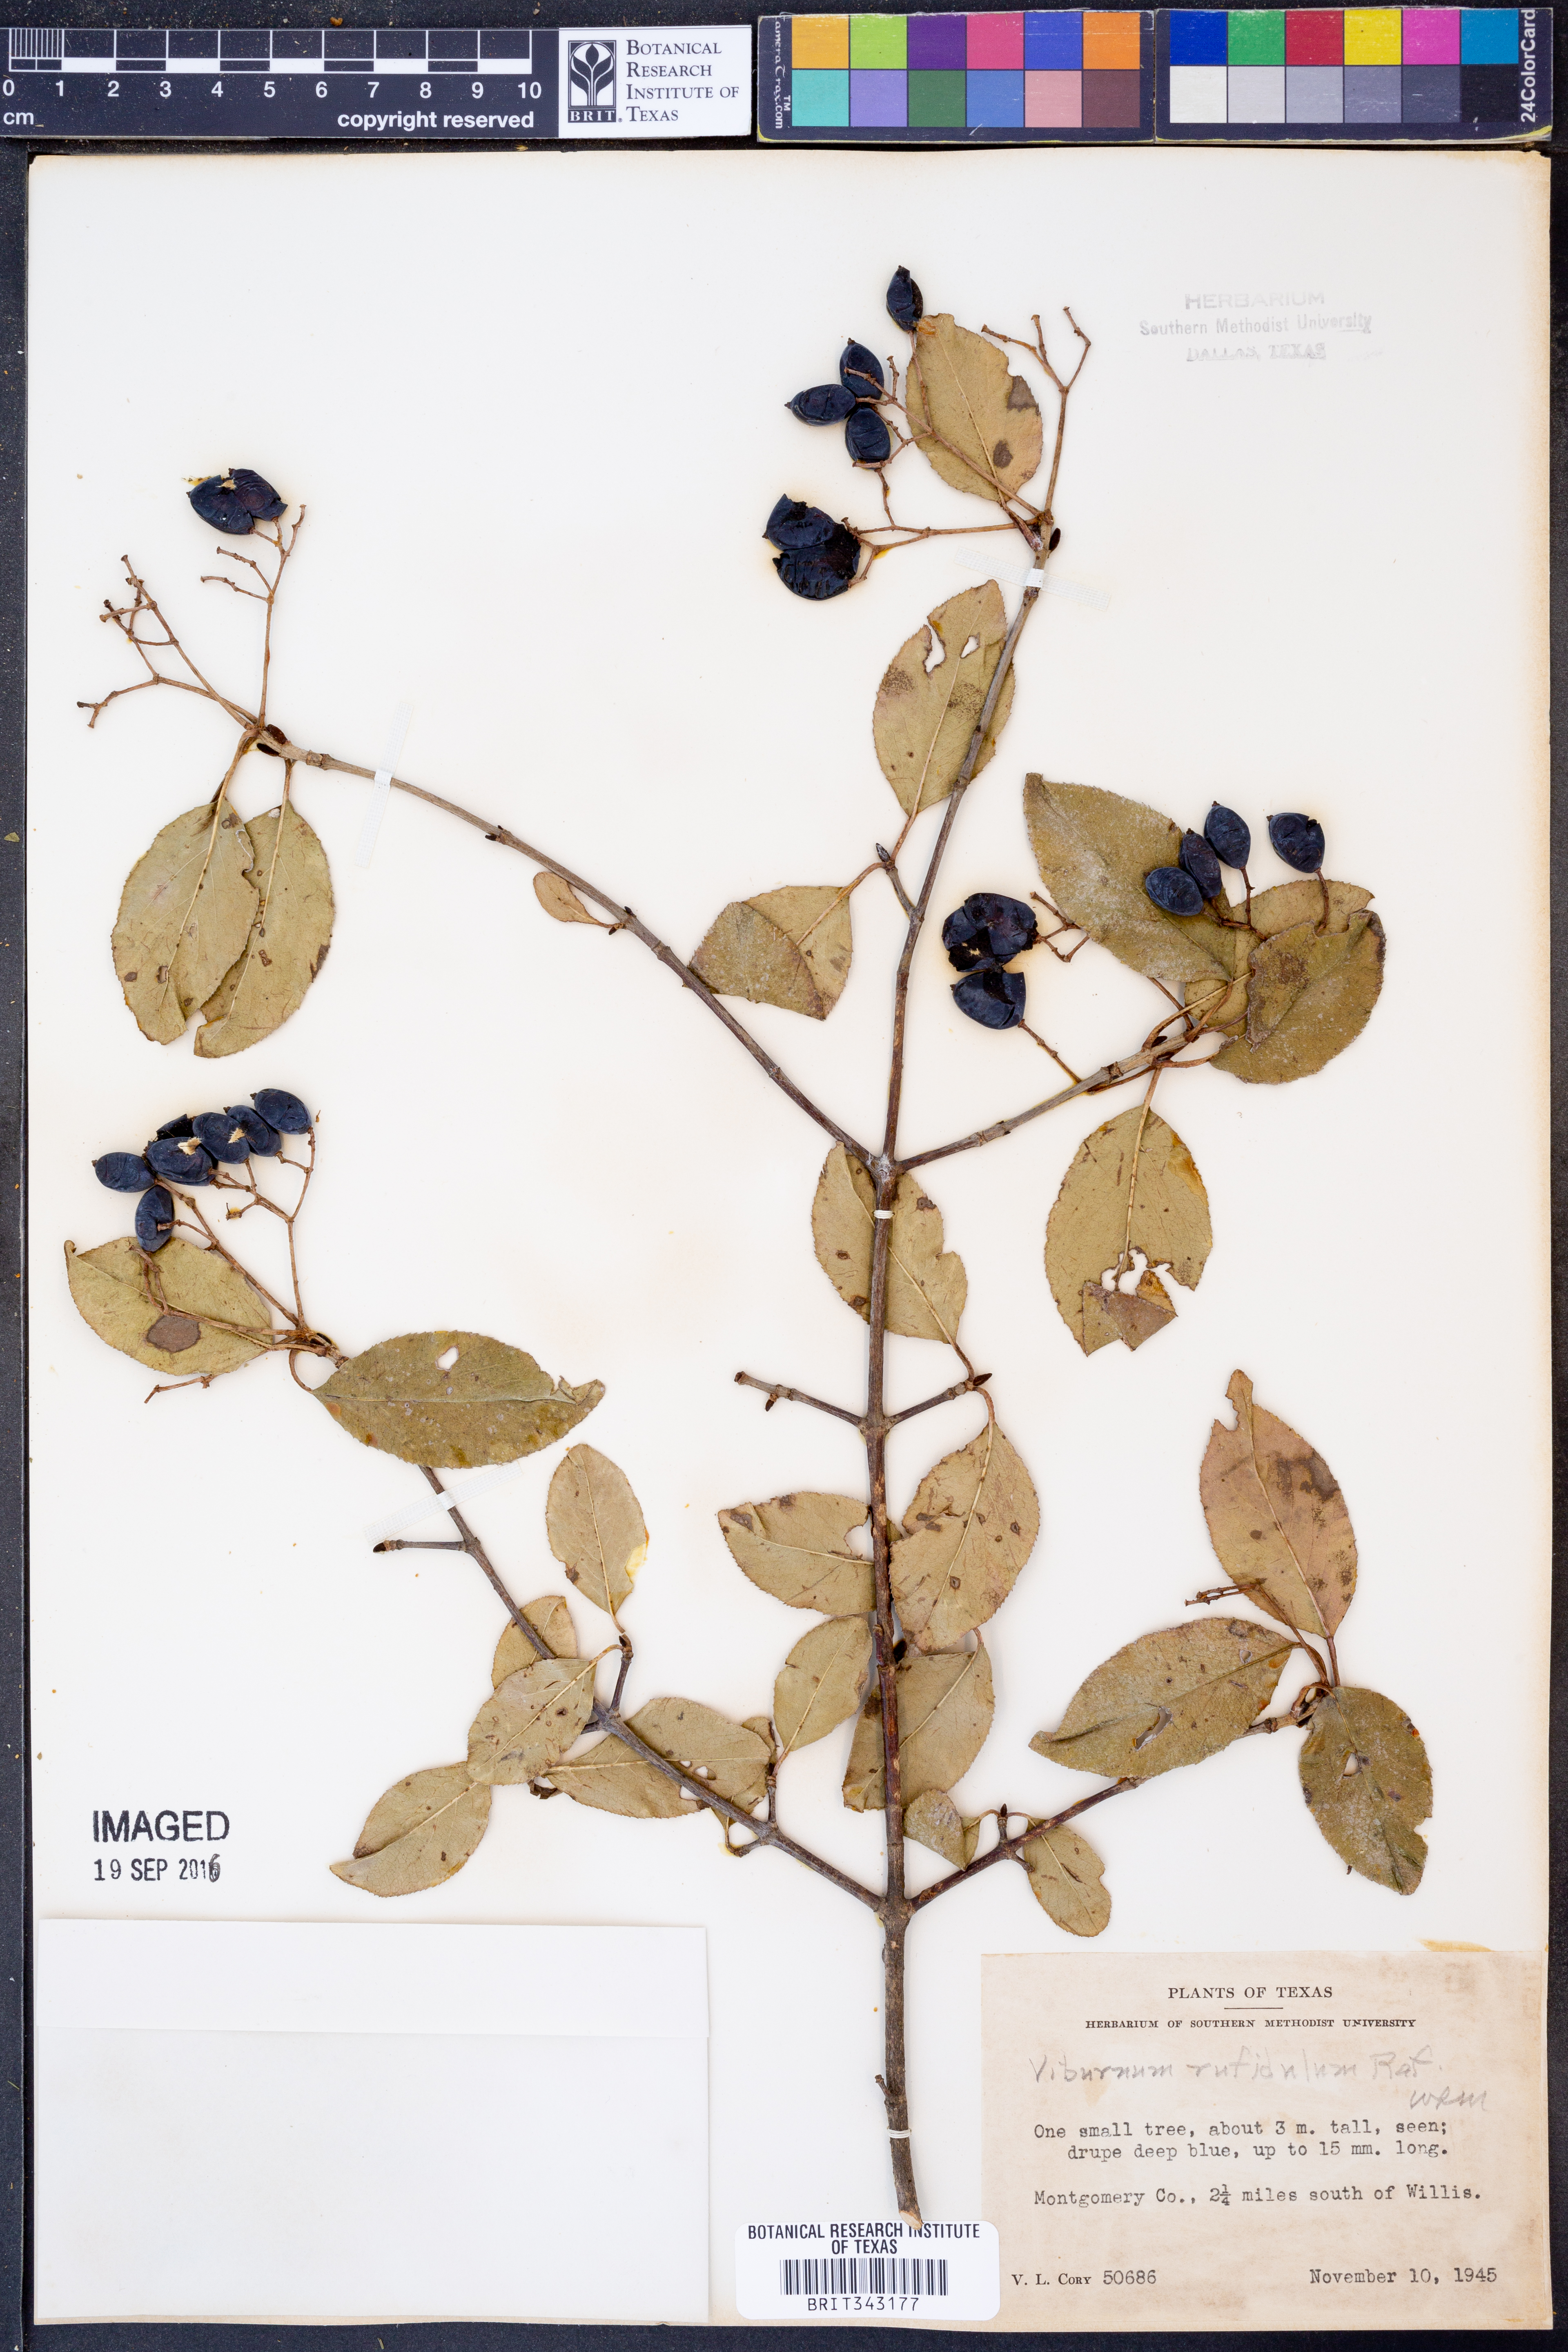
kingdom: Plantae
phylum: Tracheophyta
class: Magnoliopsida
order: Dipsacales
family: Viburnaceae
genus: Viburnum
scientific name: Viburnum rufidulum
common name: Blue haw
